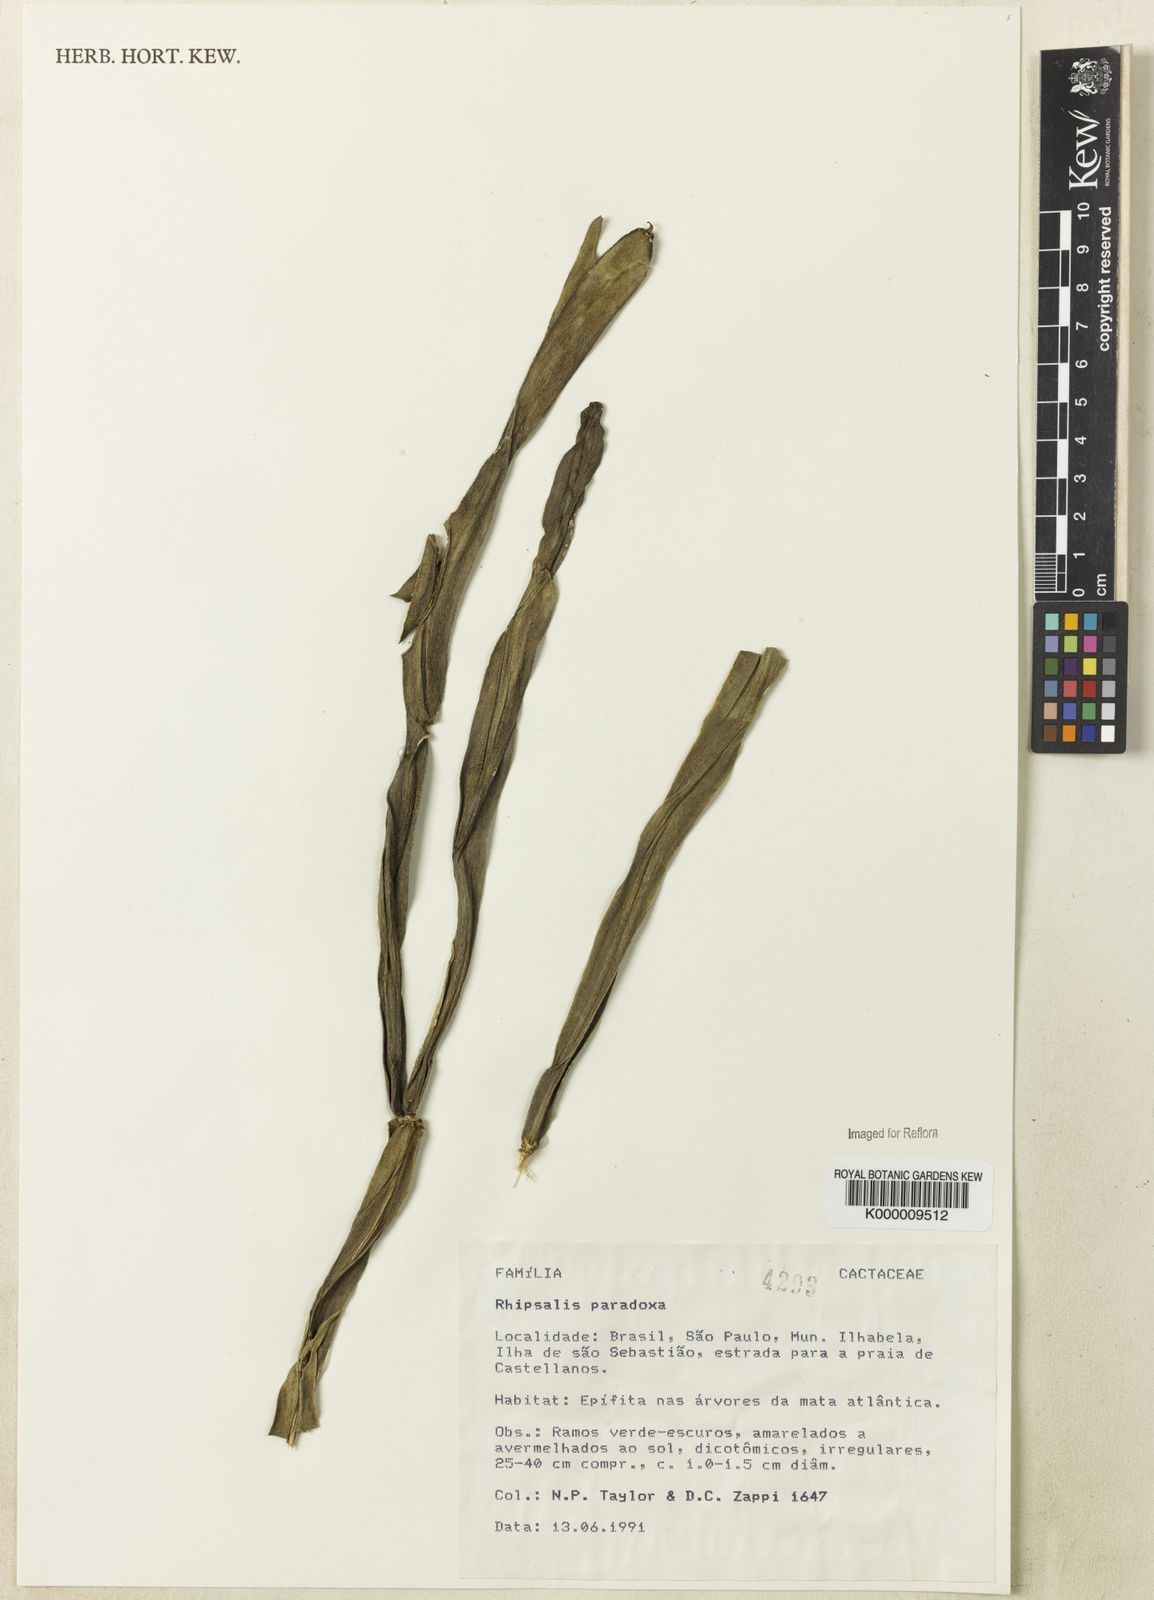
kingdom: Plantae
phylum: Tracheophyta
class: Magnoliopsida
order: Caryophyllales
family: Cactaceae
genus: Rhipsalis
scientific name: Rhipsalis paradoxa
